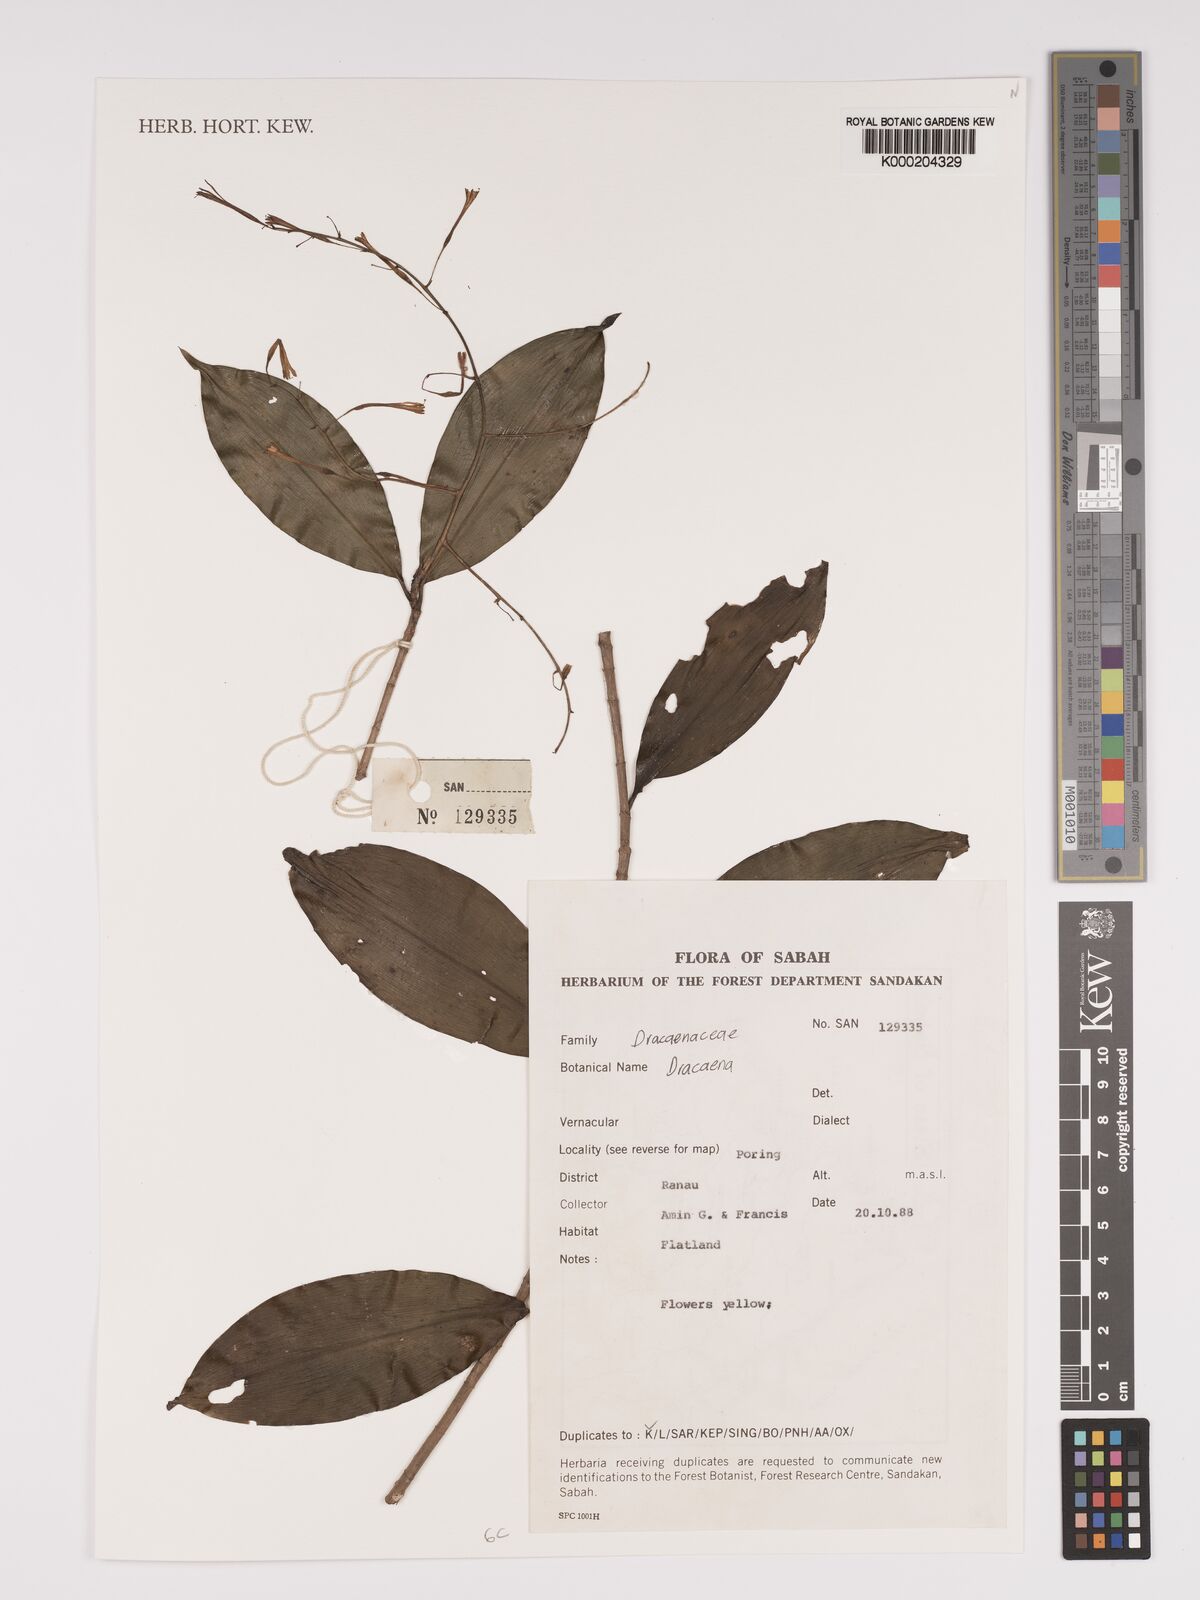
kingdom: Plantae
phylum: Tracheophyta
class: Liliopsida
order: Asparagales
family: Asparagaceae
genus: Dracaena
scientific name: Dracaena
